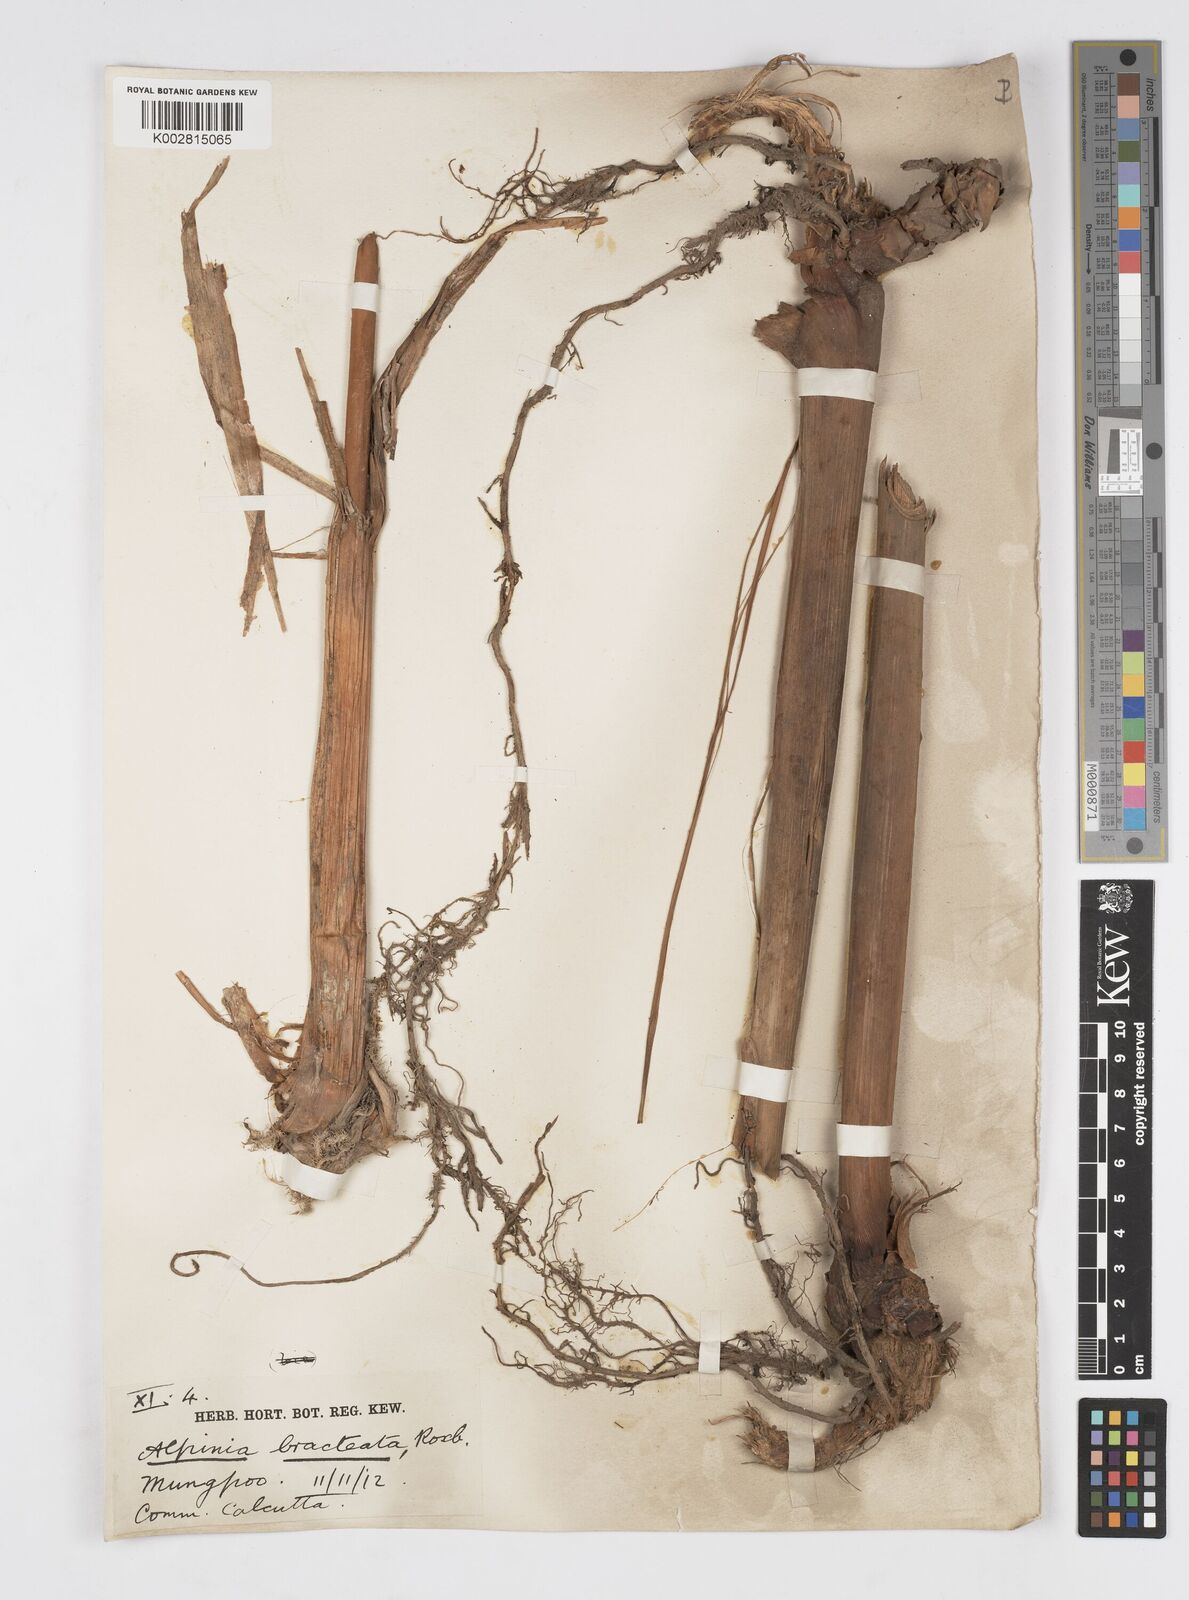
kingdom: Plantae
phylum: Tracheophyta
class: Liliopsida
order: Zingiberales
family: Zingiberaceae
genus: Alpinia
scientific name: Alpinia calcarata
